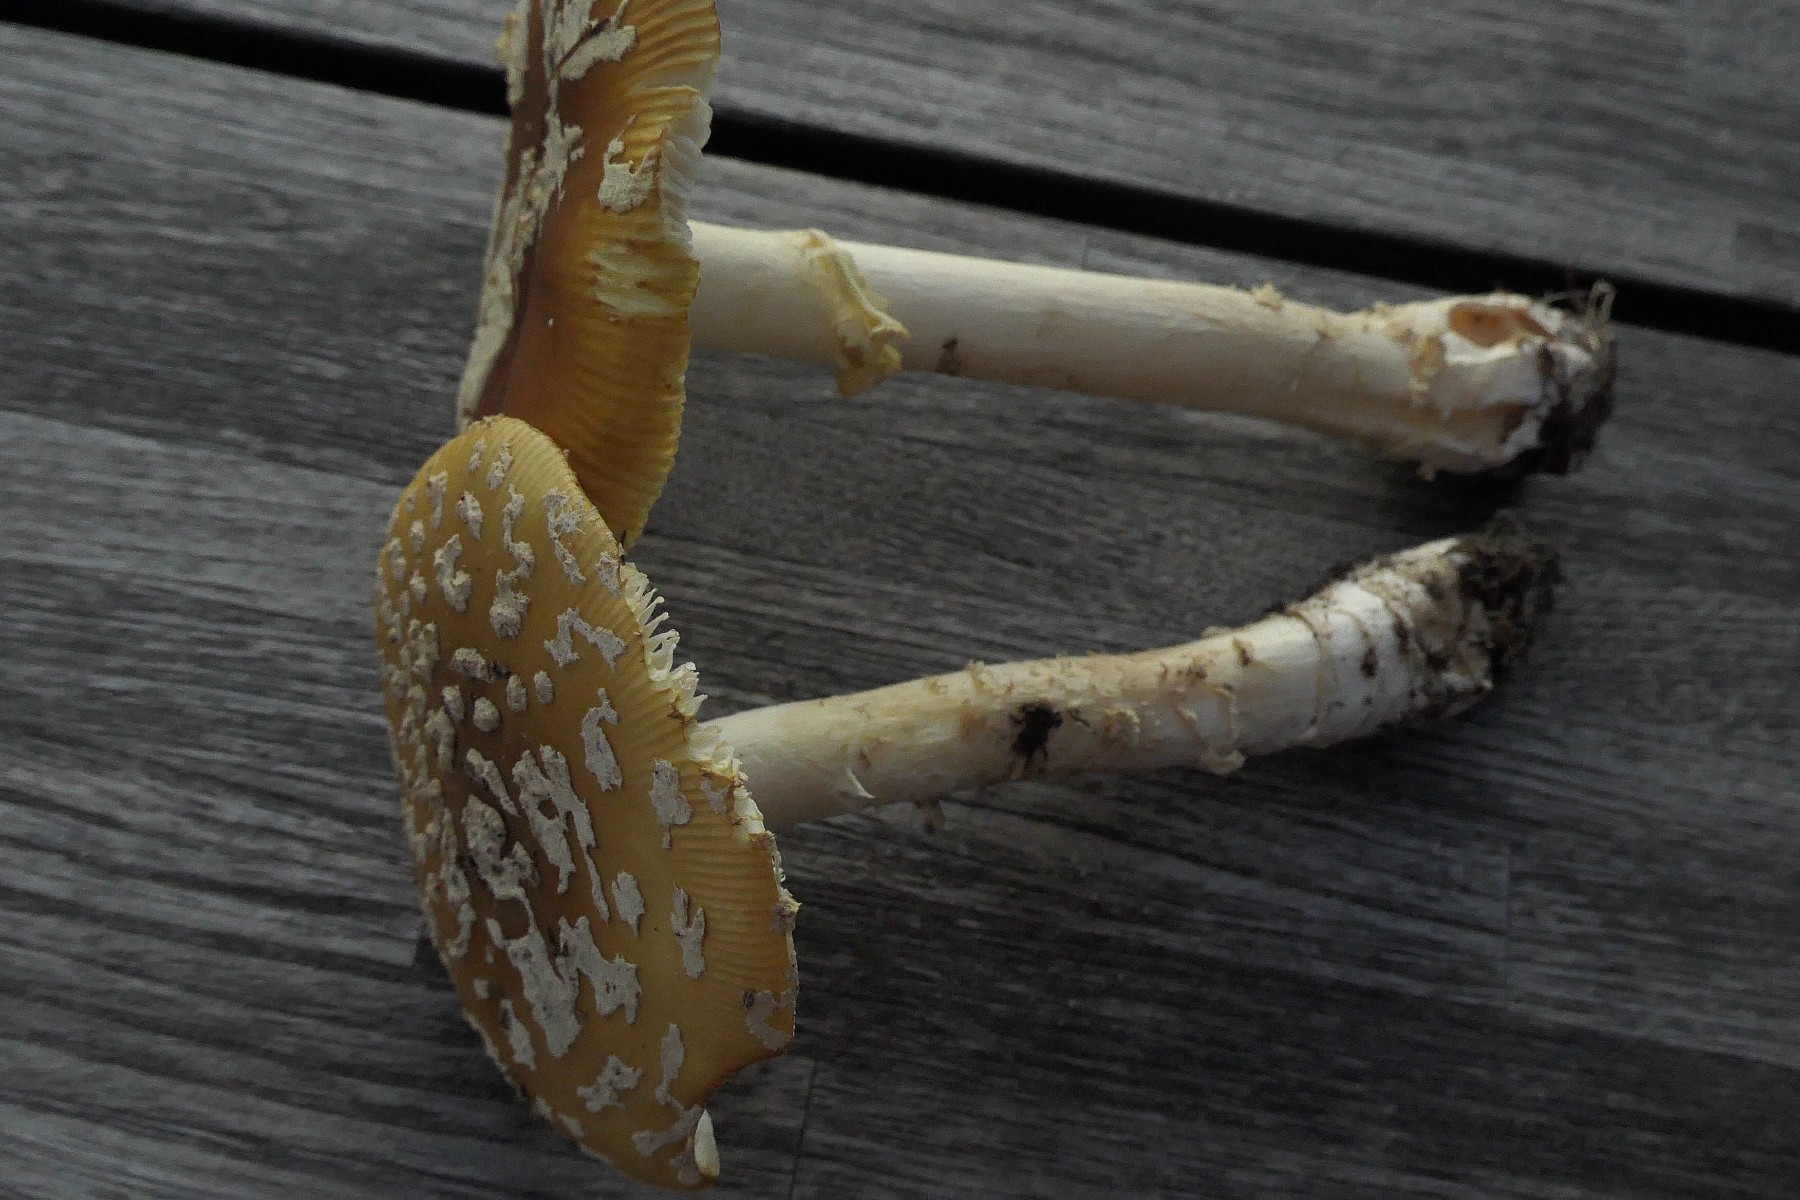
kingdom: Fungi
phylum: Basidiomycota
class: Agaricomycetes
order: Agaricales
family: Amanitaceae
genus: Amanita
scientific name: Amanita regalis
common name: brun fluesvamp
